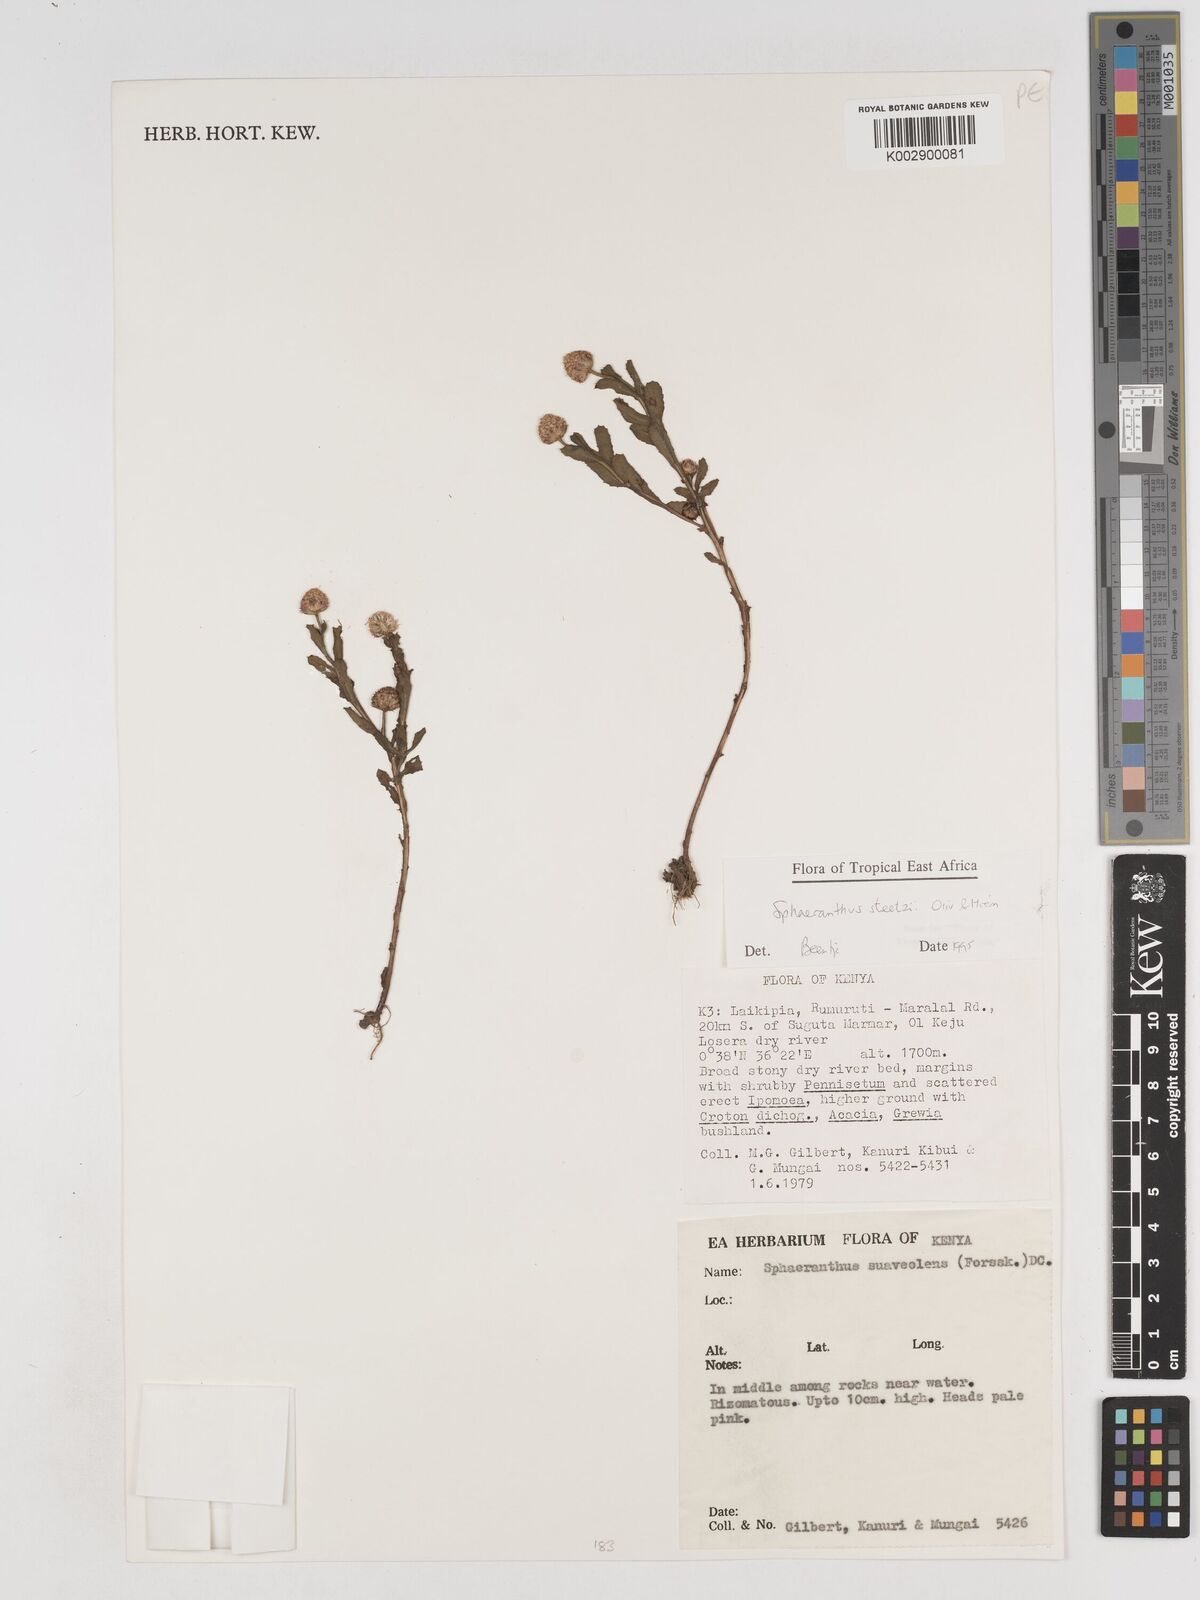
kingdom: Plantae
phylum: Tracheophyta
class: Magnoliopsida
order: Asterales
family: Asteraceae
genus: Sphaeranthus
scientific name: Sphaeranthus steetzii
